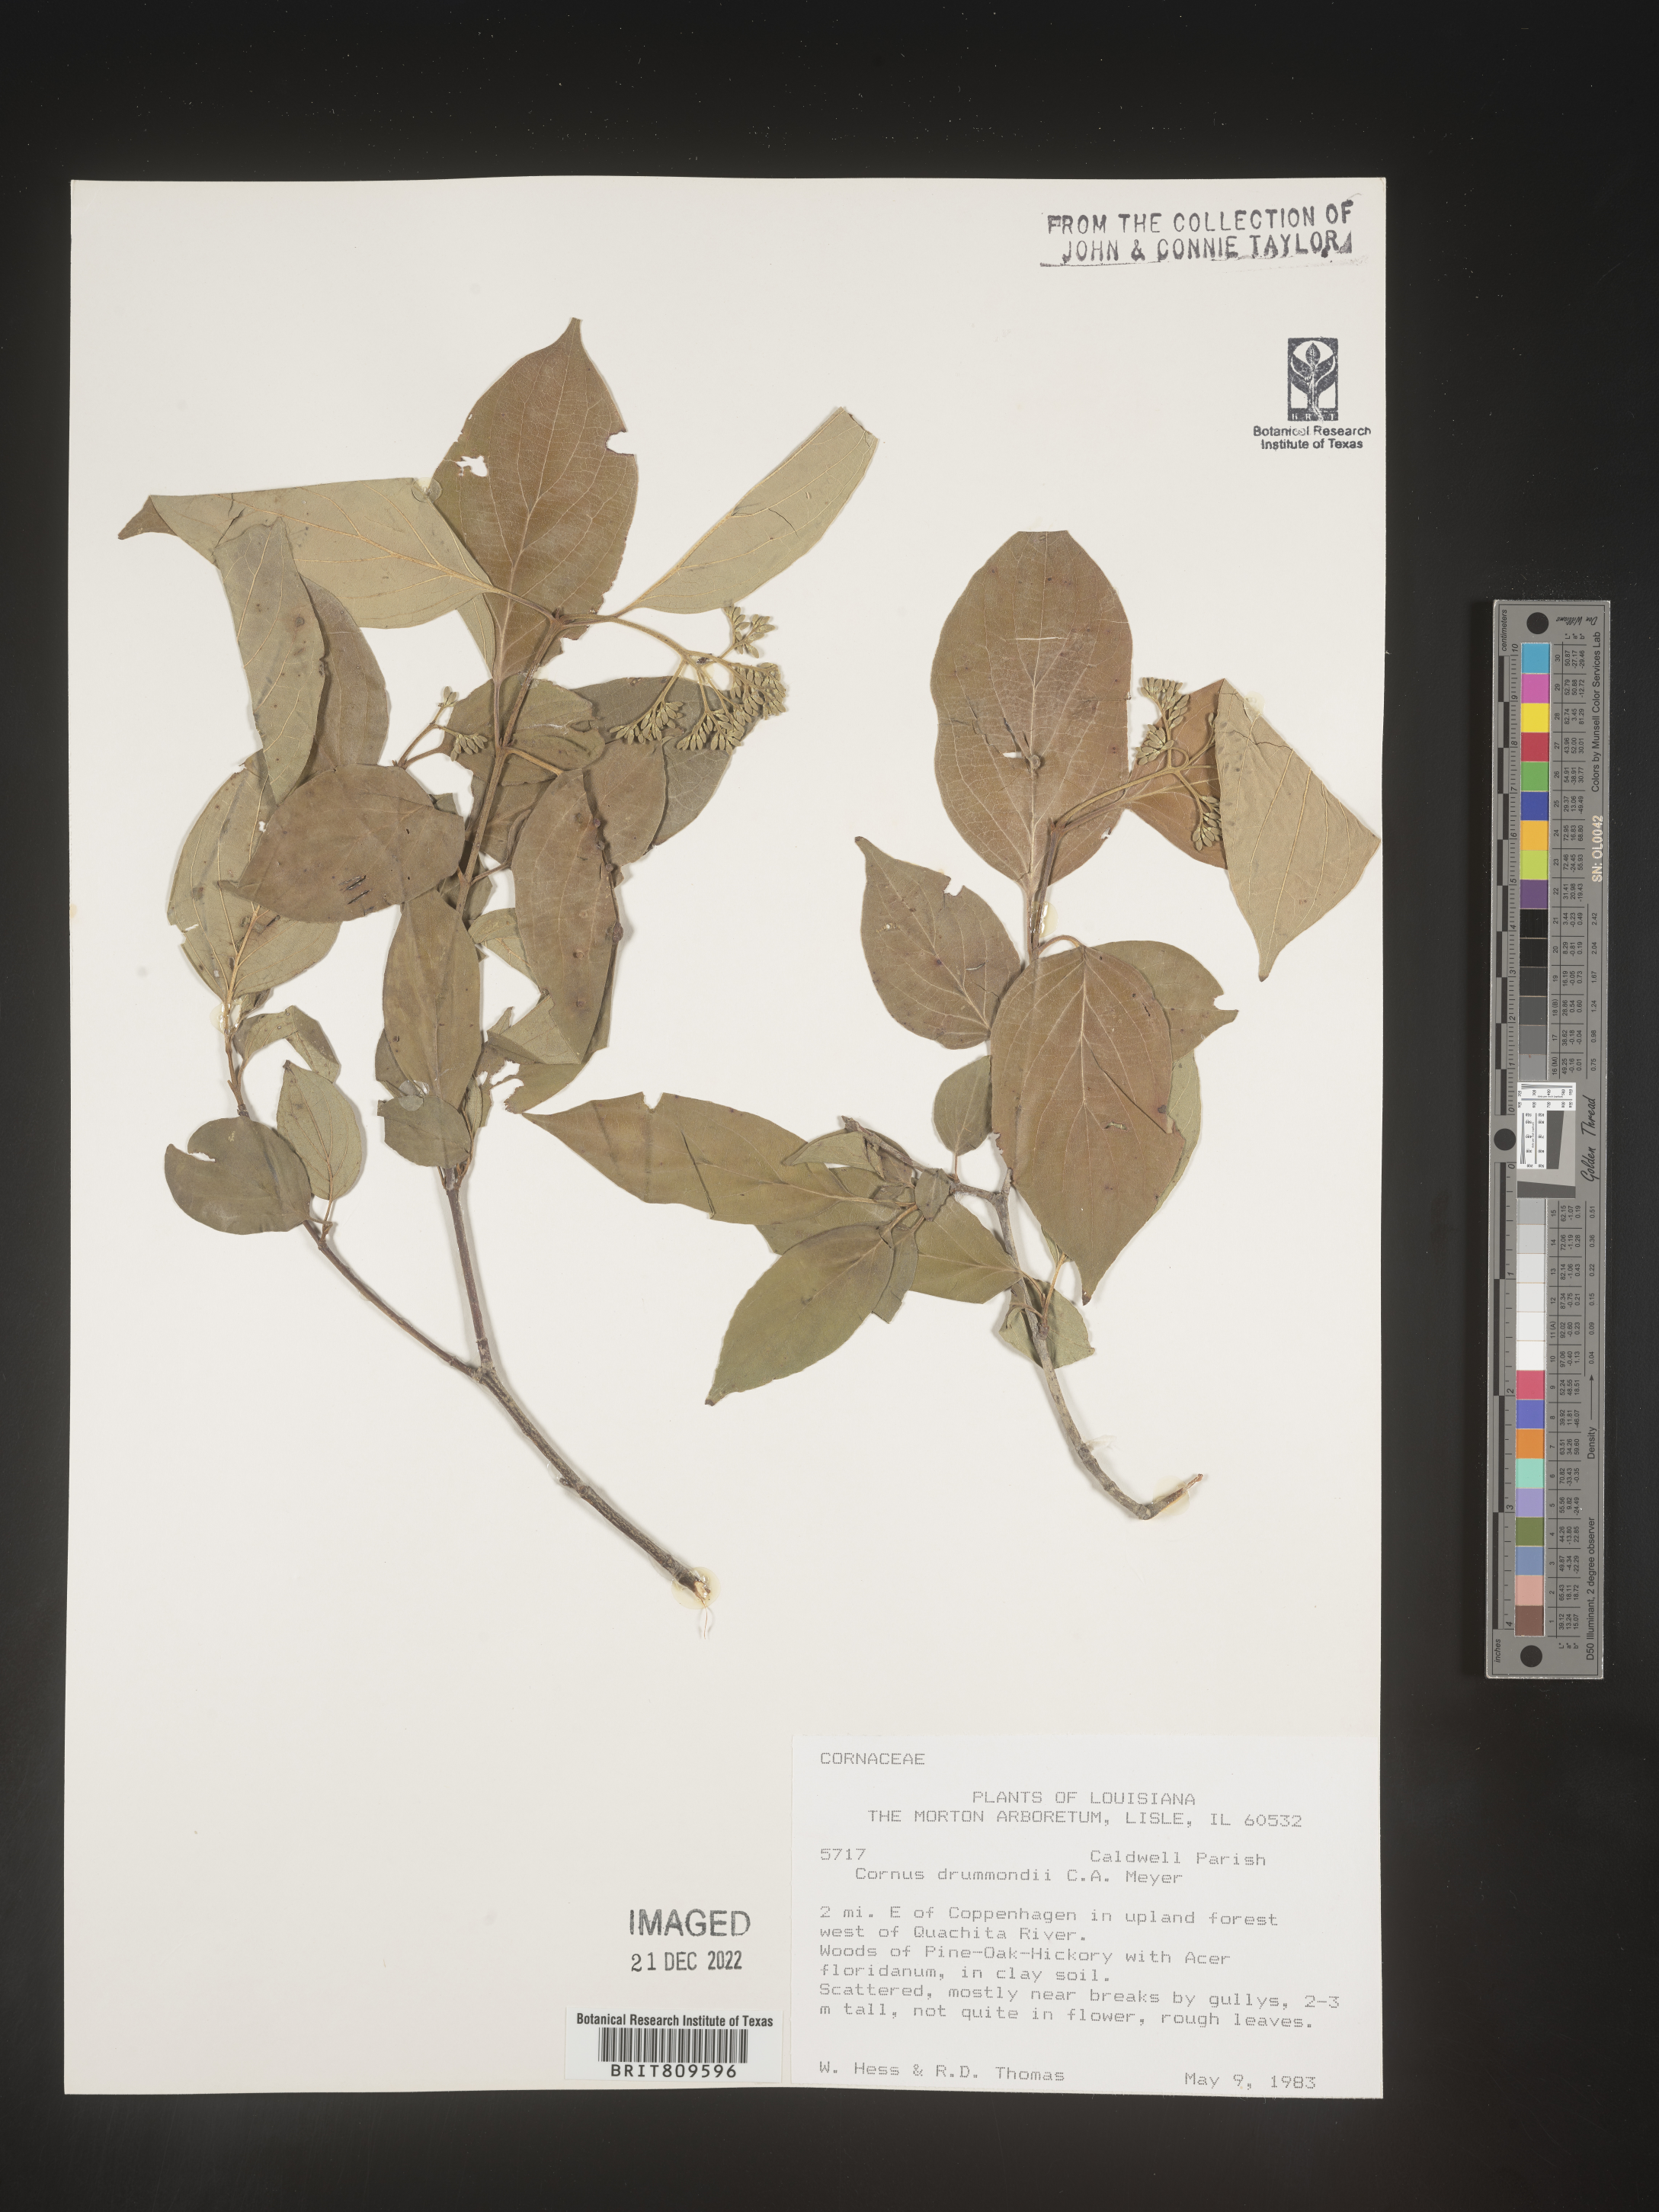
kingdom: Plantae
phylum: Tracheophyta
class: Magnoliopsida
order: Cornales
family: Cornaceae
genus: Cornus
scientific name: Cornus drummondii
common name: Rough-leaf dogwood
